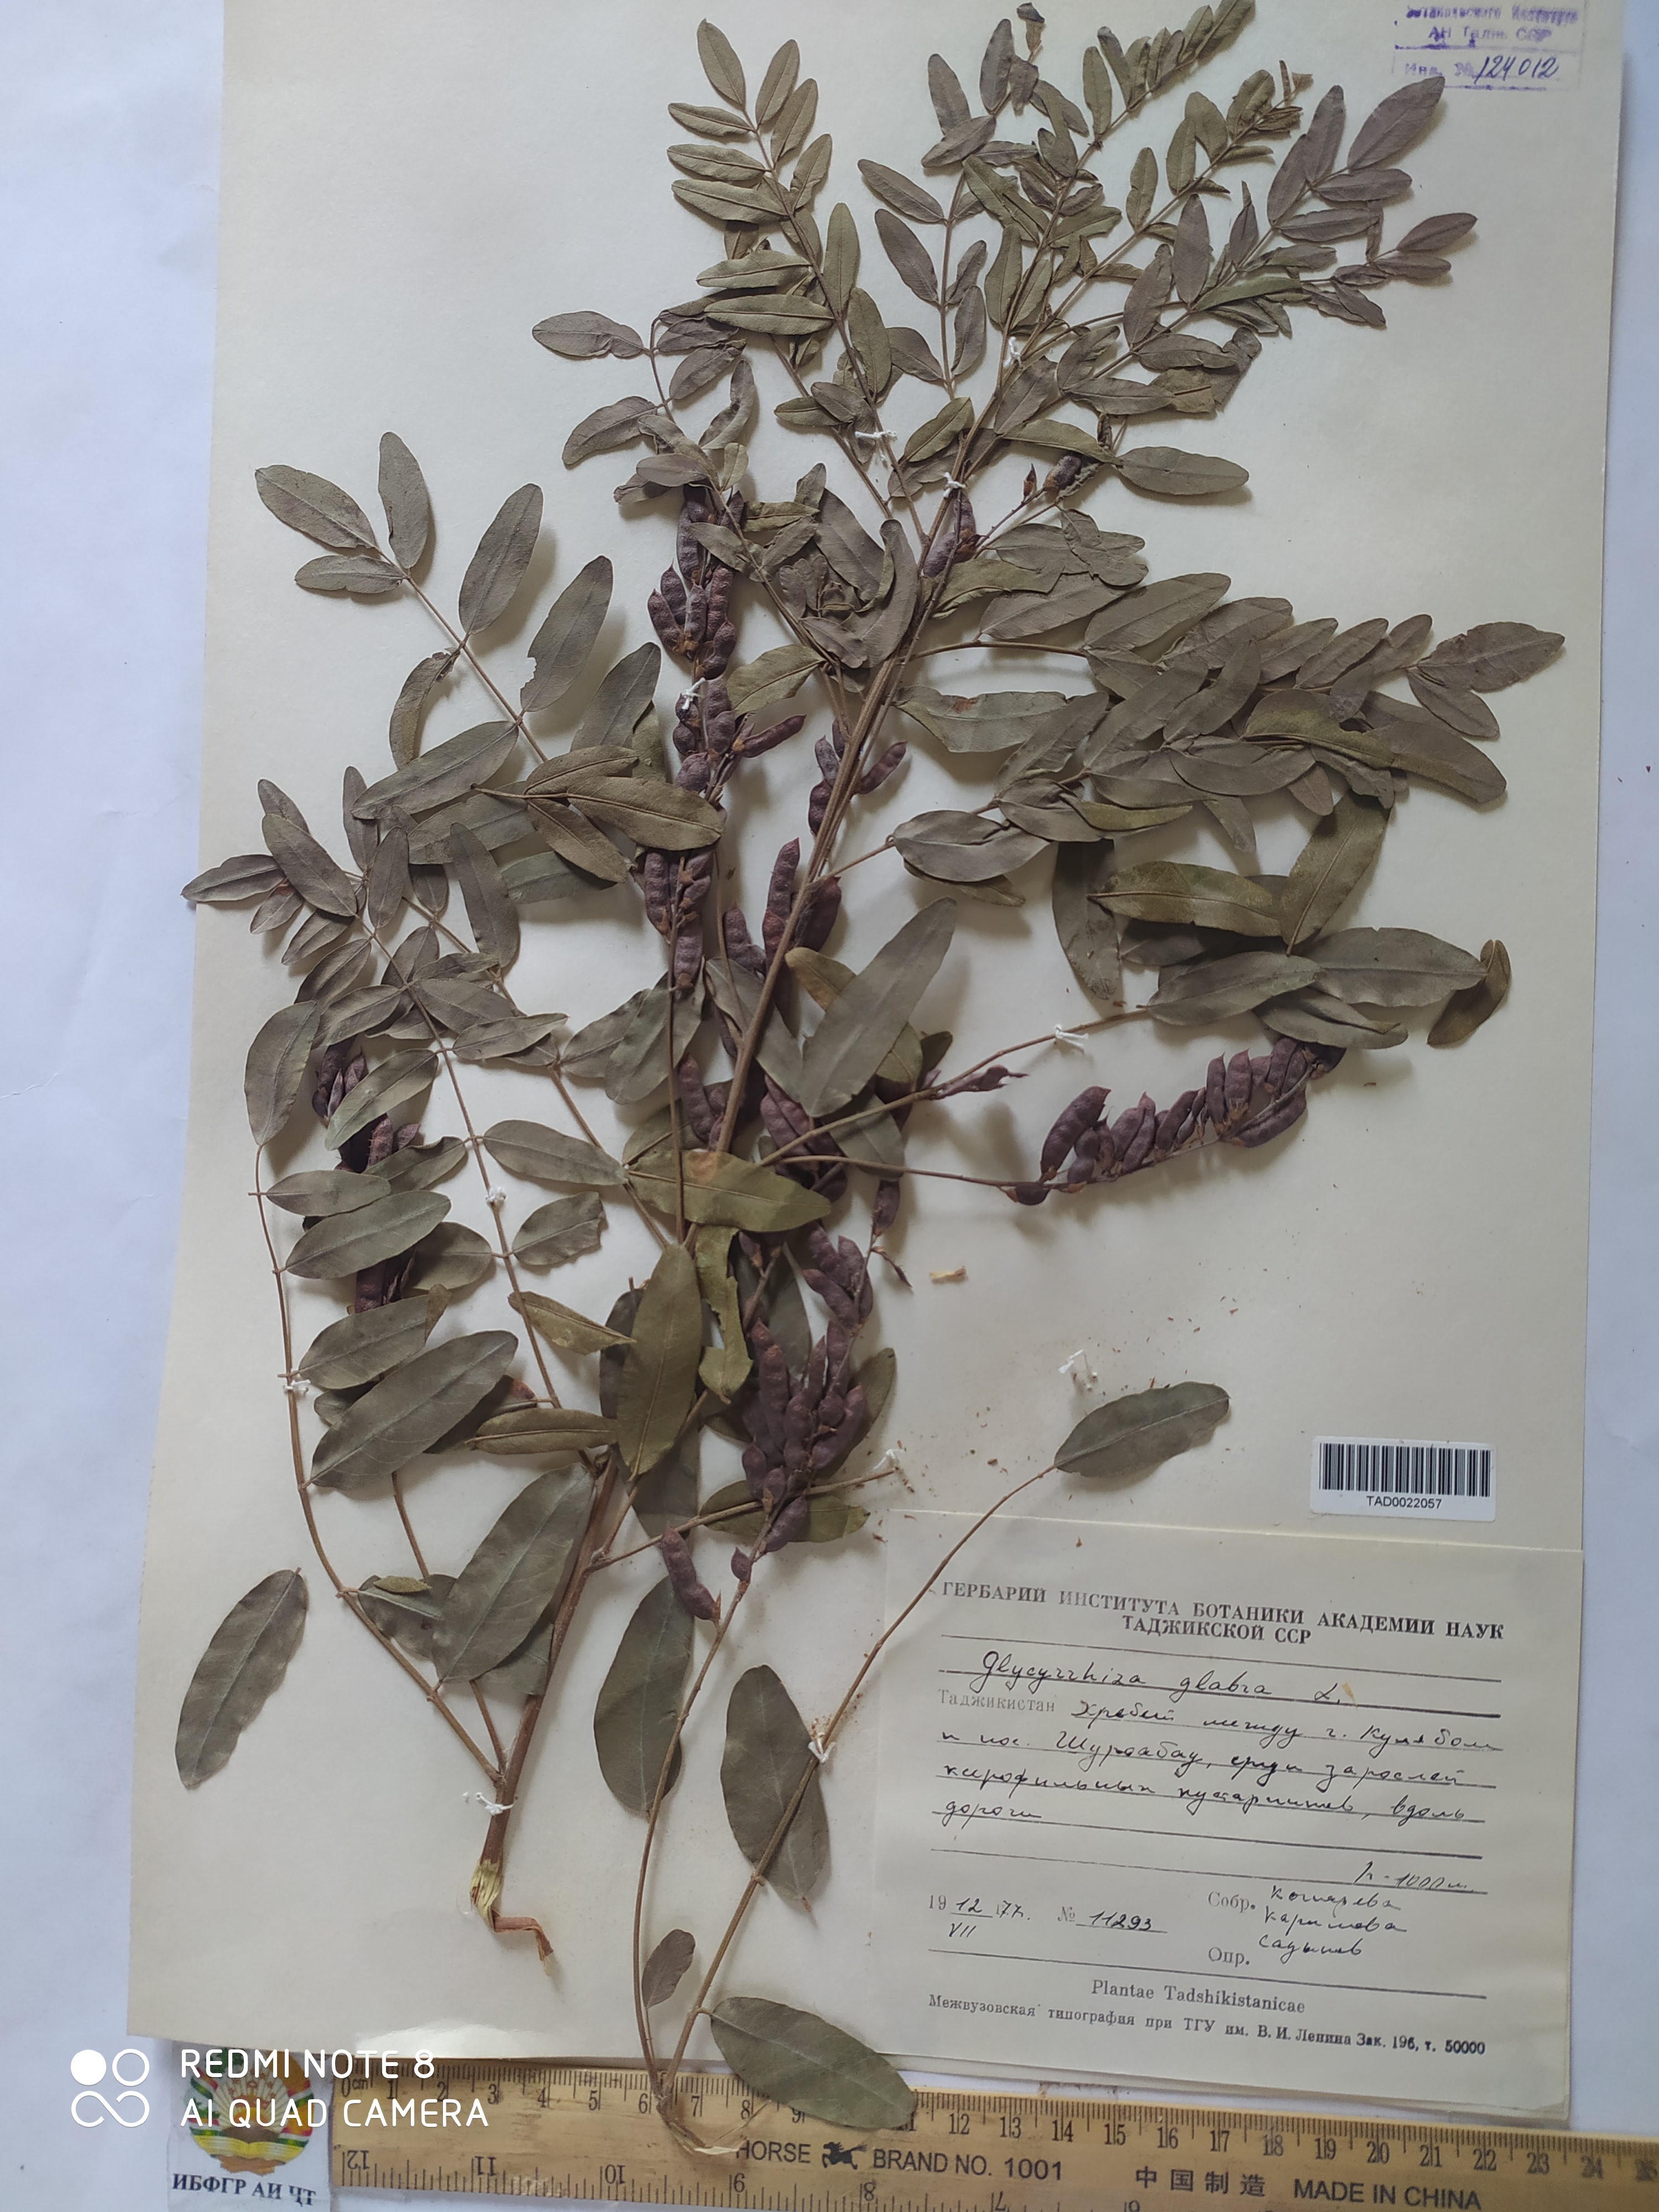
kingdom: Plantae
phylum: Tracheophyta
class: Magnoliopsida
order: Fabales
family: Fabaceae
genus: Glycyrrhiza
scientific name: Glycyrrhiza glabra
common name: Liquorice
